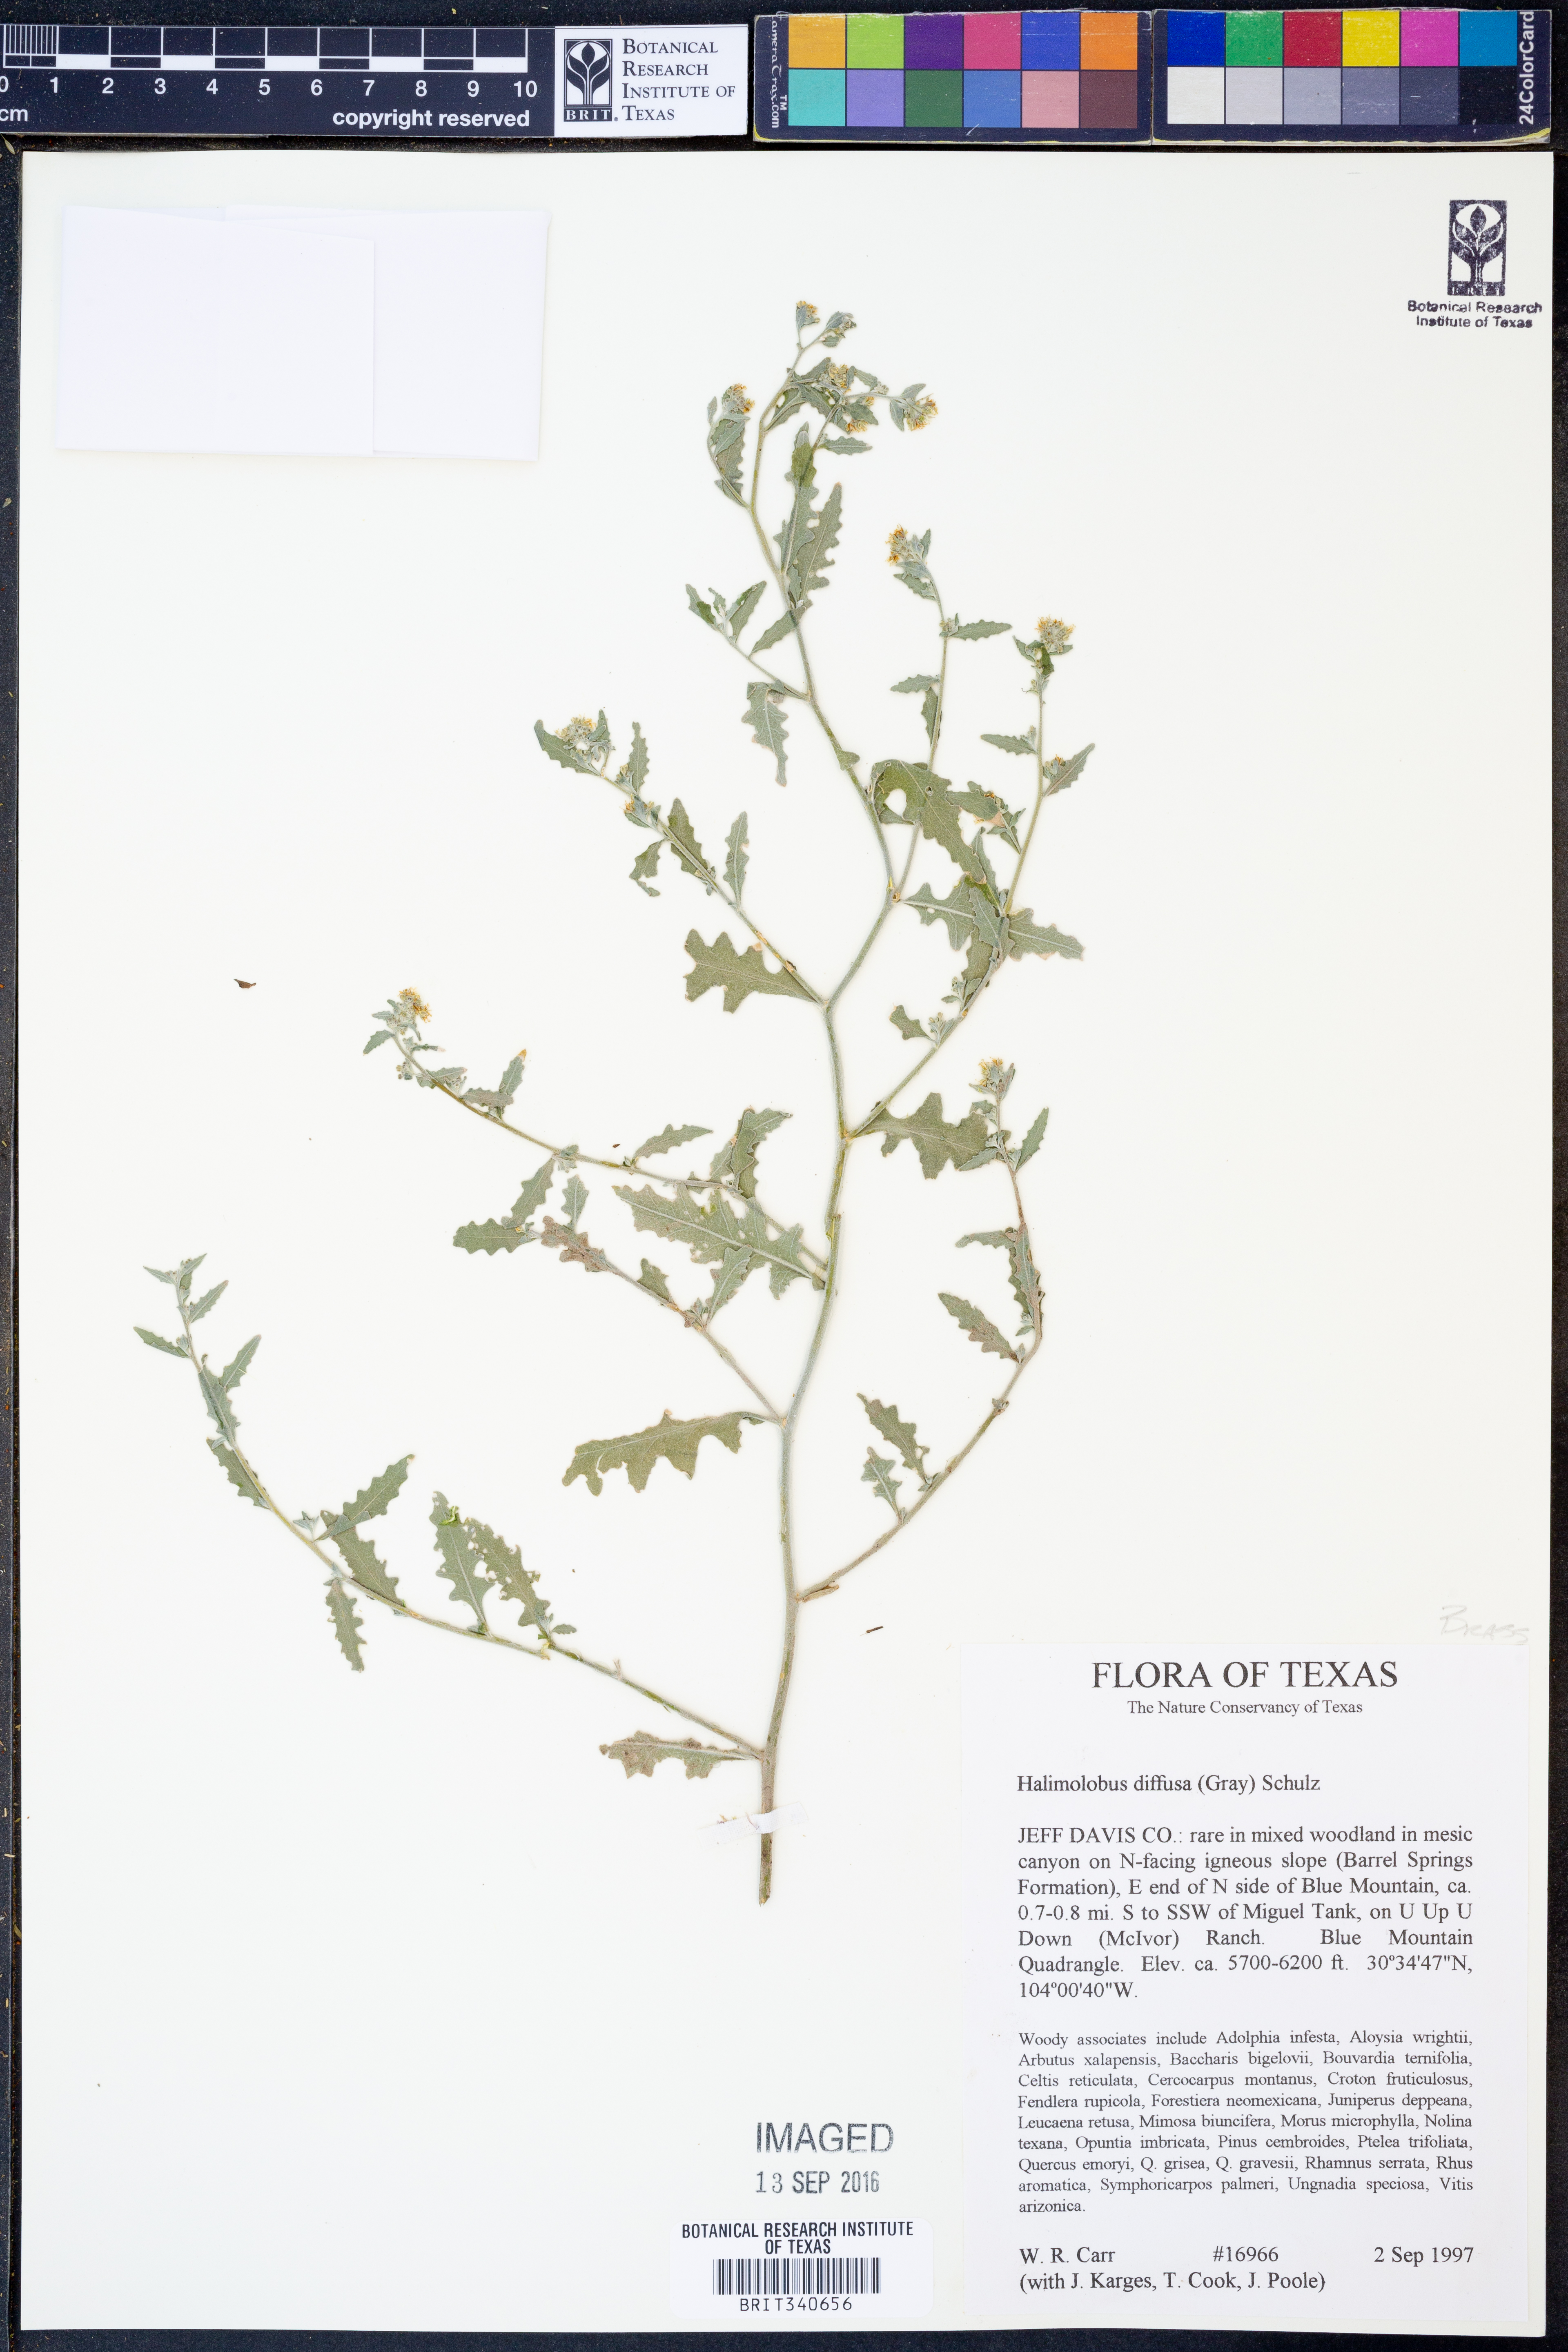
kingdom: Plantae
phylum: Tracheophyta
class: Magnoliopsida
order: Brassicales
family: Brassicaceae
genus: Halimolobos
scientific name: Halimolobos diffusus
